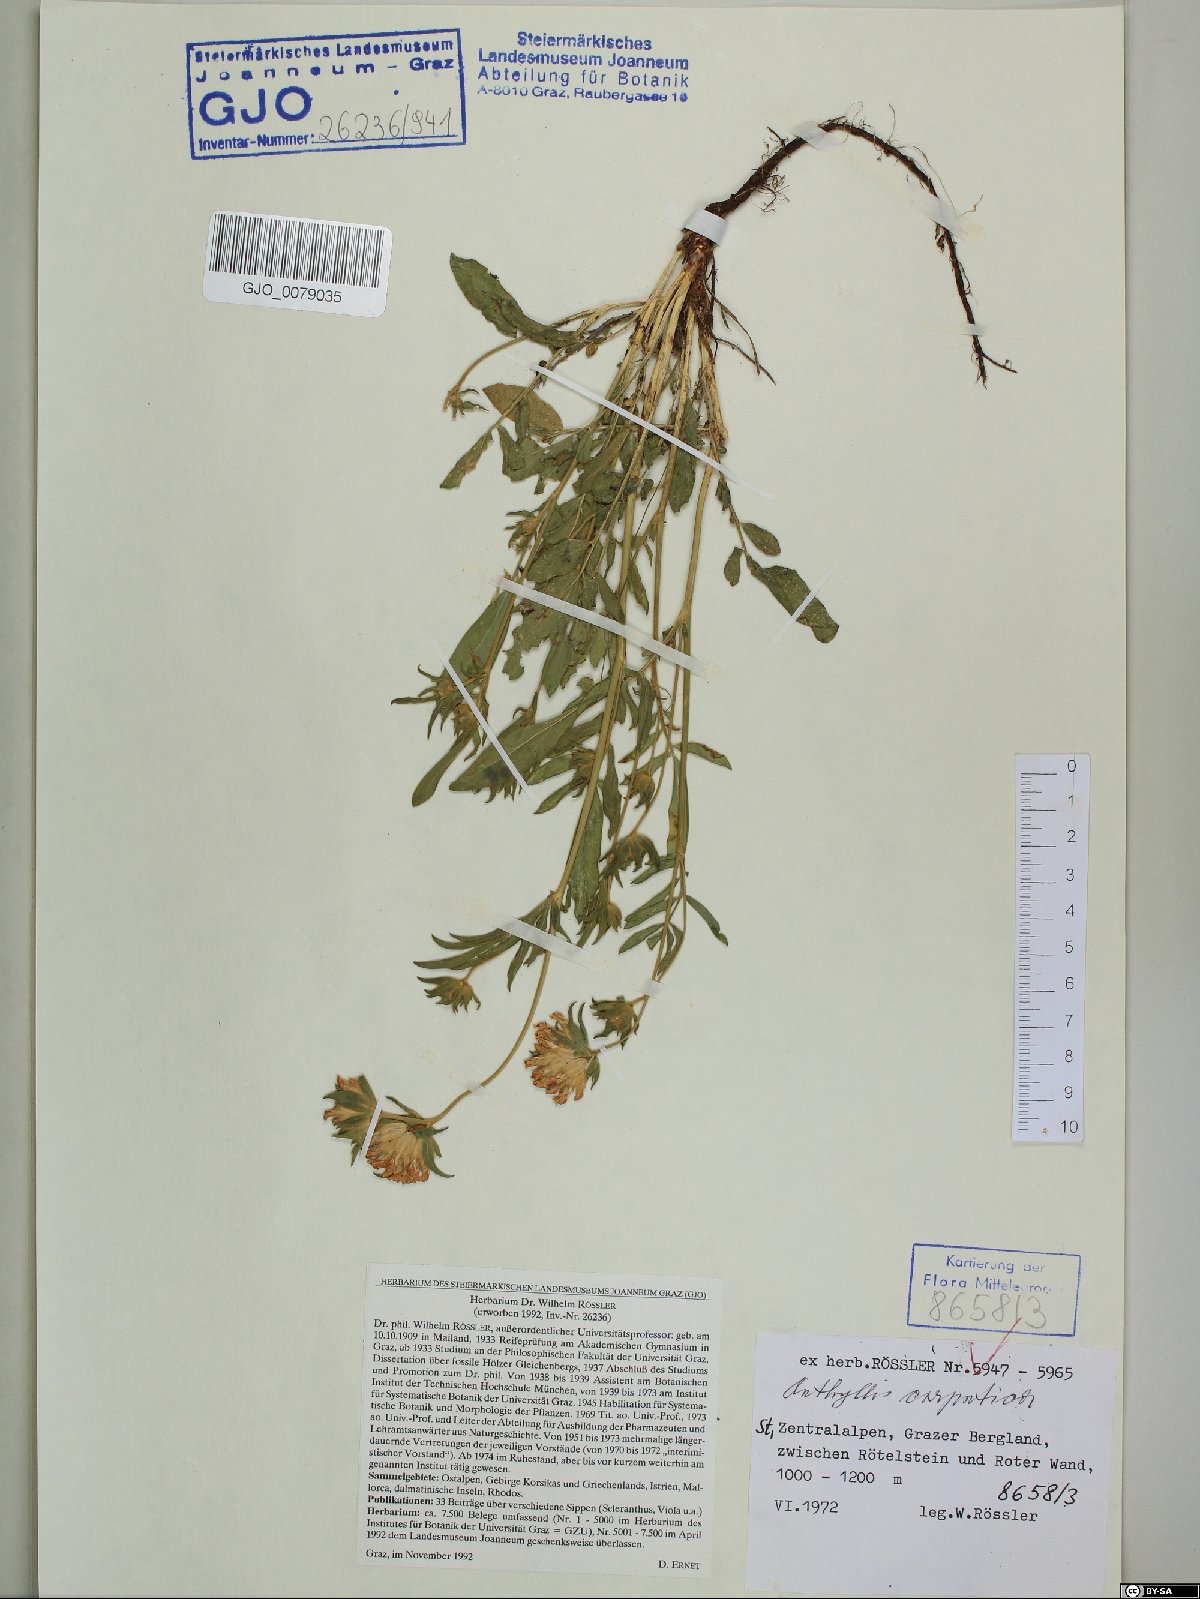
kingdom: Plantae
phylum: Tracheophyta
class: Magnoliopsida
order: Fabales
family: Fabaceae
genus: Anthyllis
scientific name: Anthyllis vulneraria
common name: Kidney vetch
